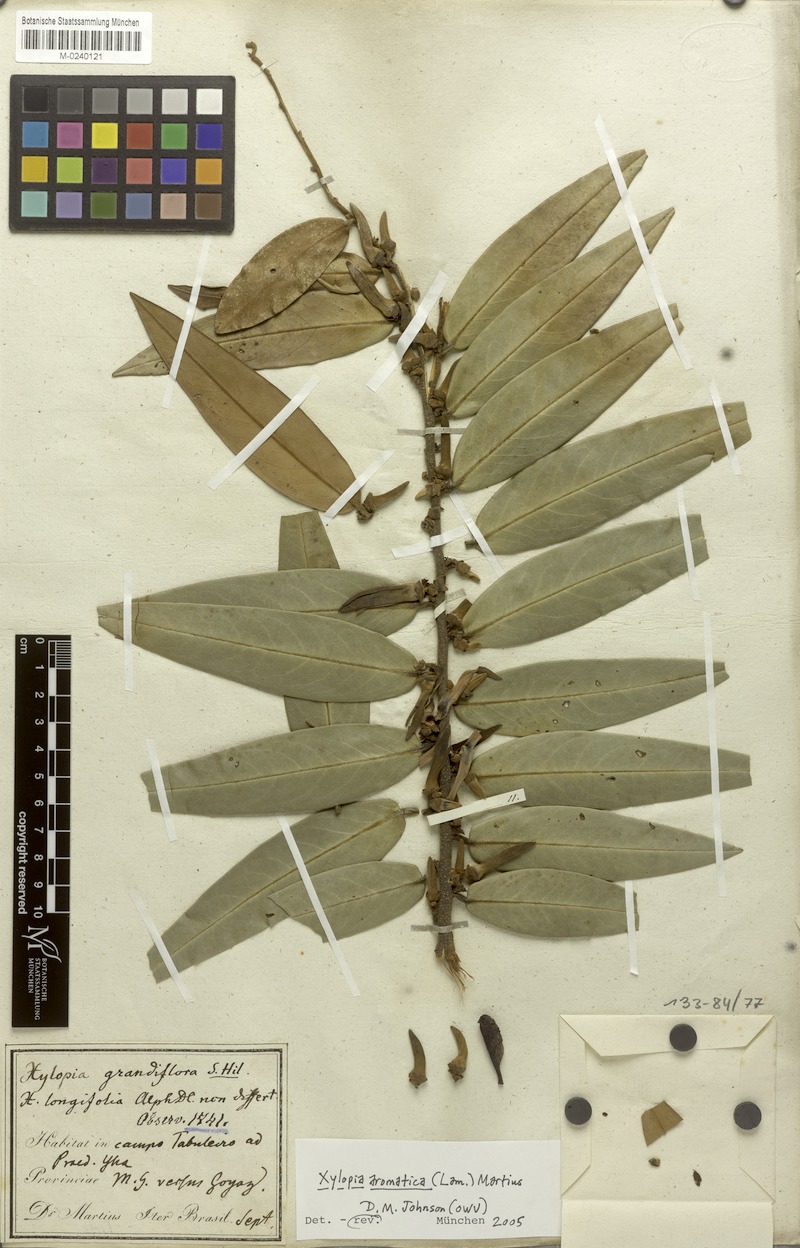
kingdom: Plantae
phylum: Tracheophyta
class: Magnoliopsida
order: Magnoliales
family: Annonaceae
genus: Xylopia
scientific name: Xylopia aromatica
